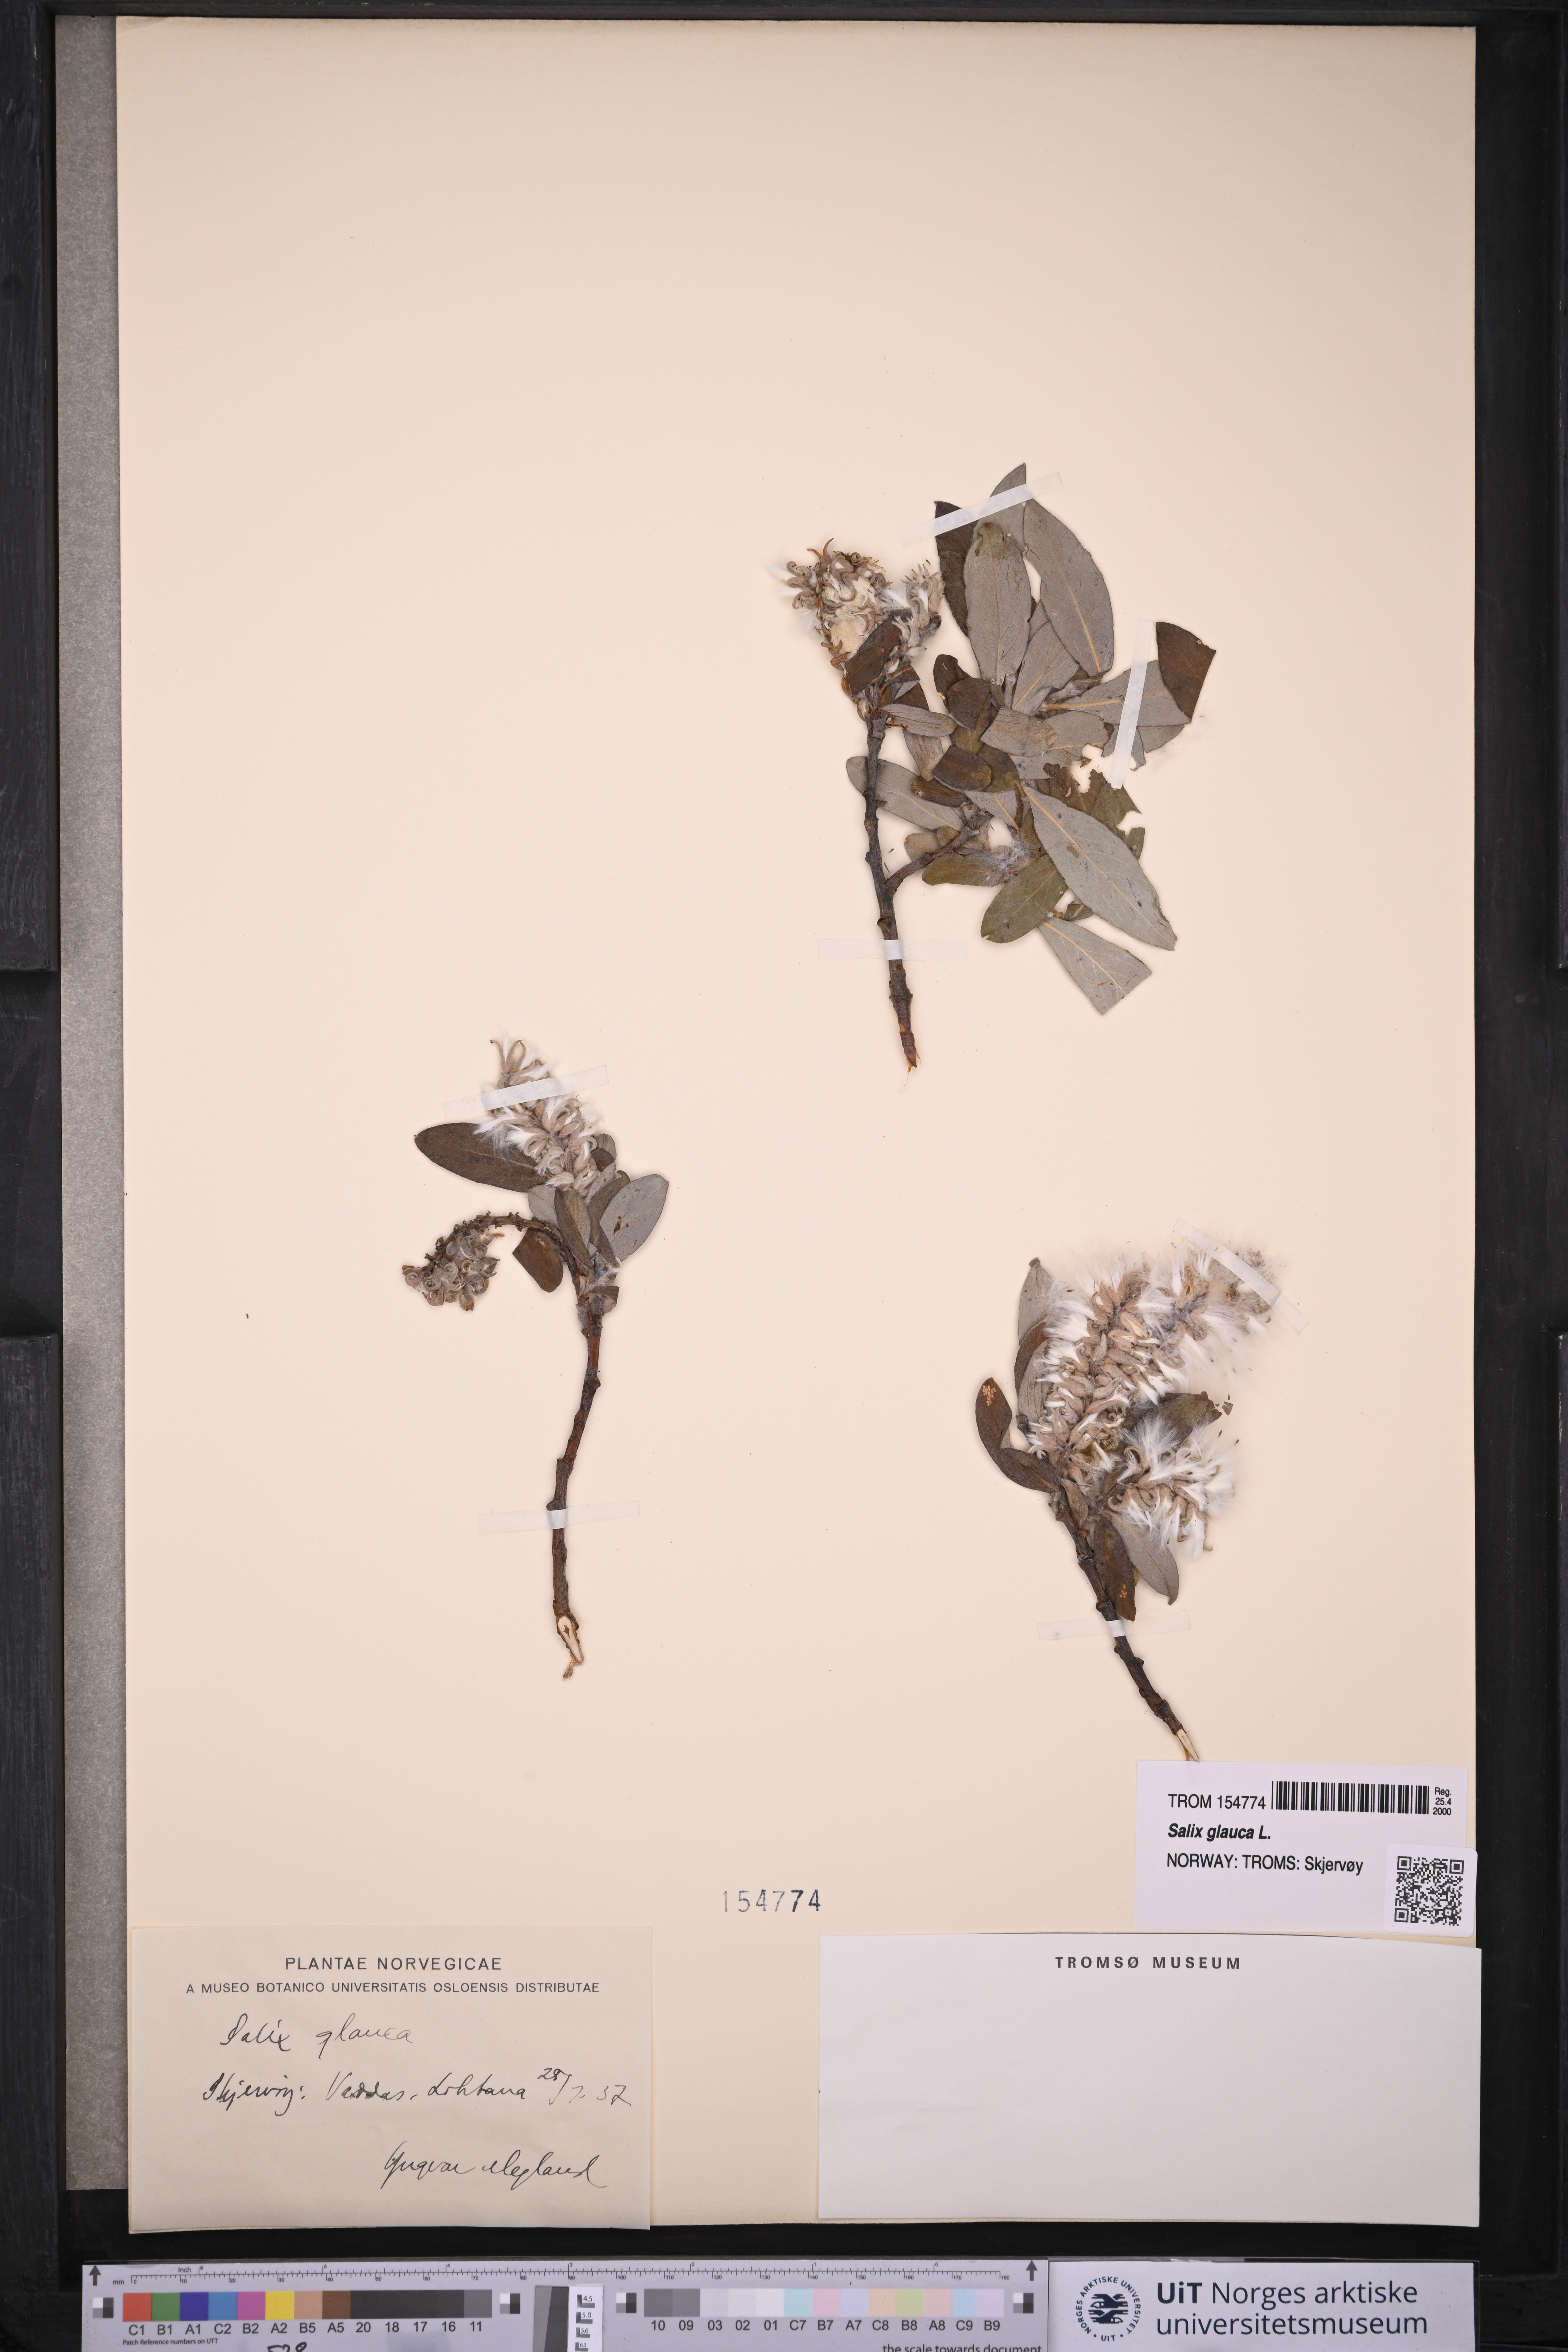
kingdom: Plantae
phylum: Tracheophyta
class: Magnoliopsida
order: Malpighiales
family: Salicaceae
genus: Salix
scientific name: Salix glauca
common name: Glaucous willow
